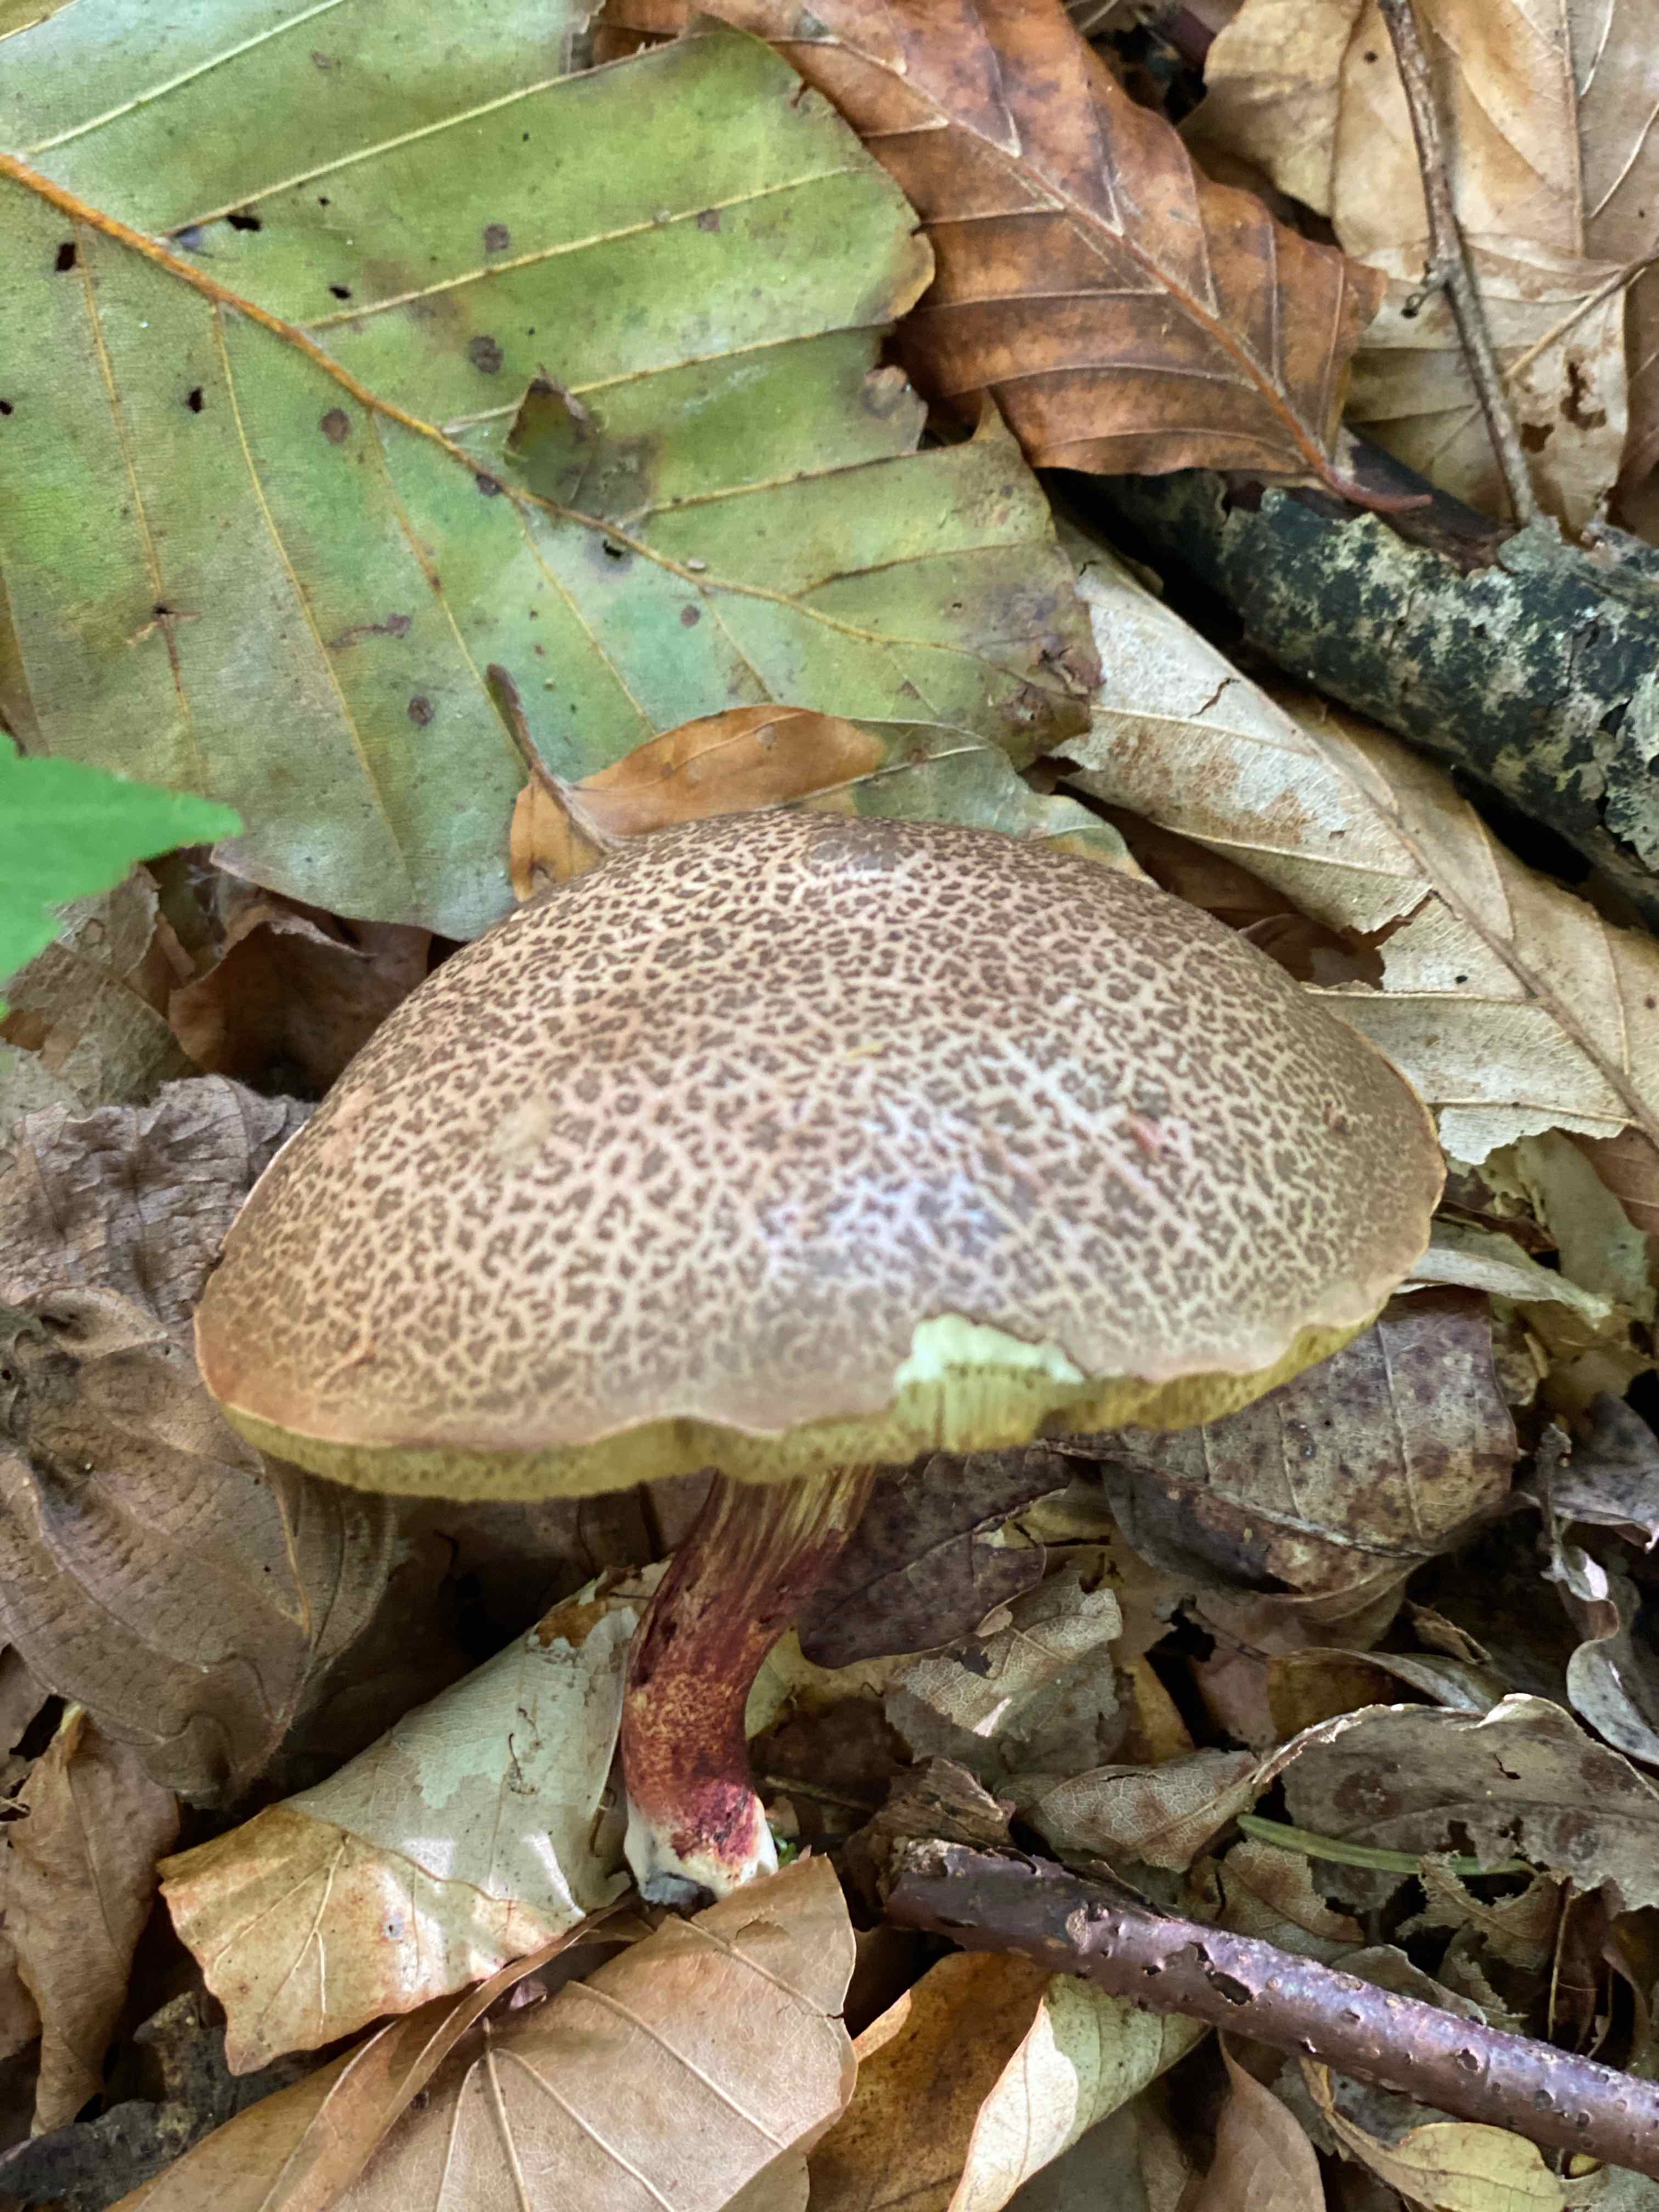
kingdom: Fungi
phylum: Basidiomycota
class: Agaricomycetes
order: Boletales
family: Boletaceae
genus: Xerocomellus
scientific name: Xerocomellus chrysenteron
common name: rødsprukken rørhat
